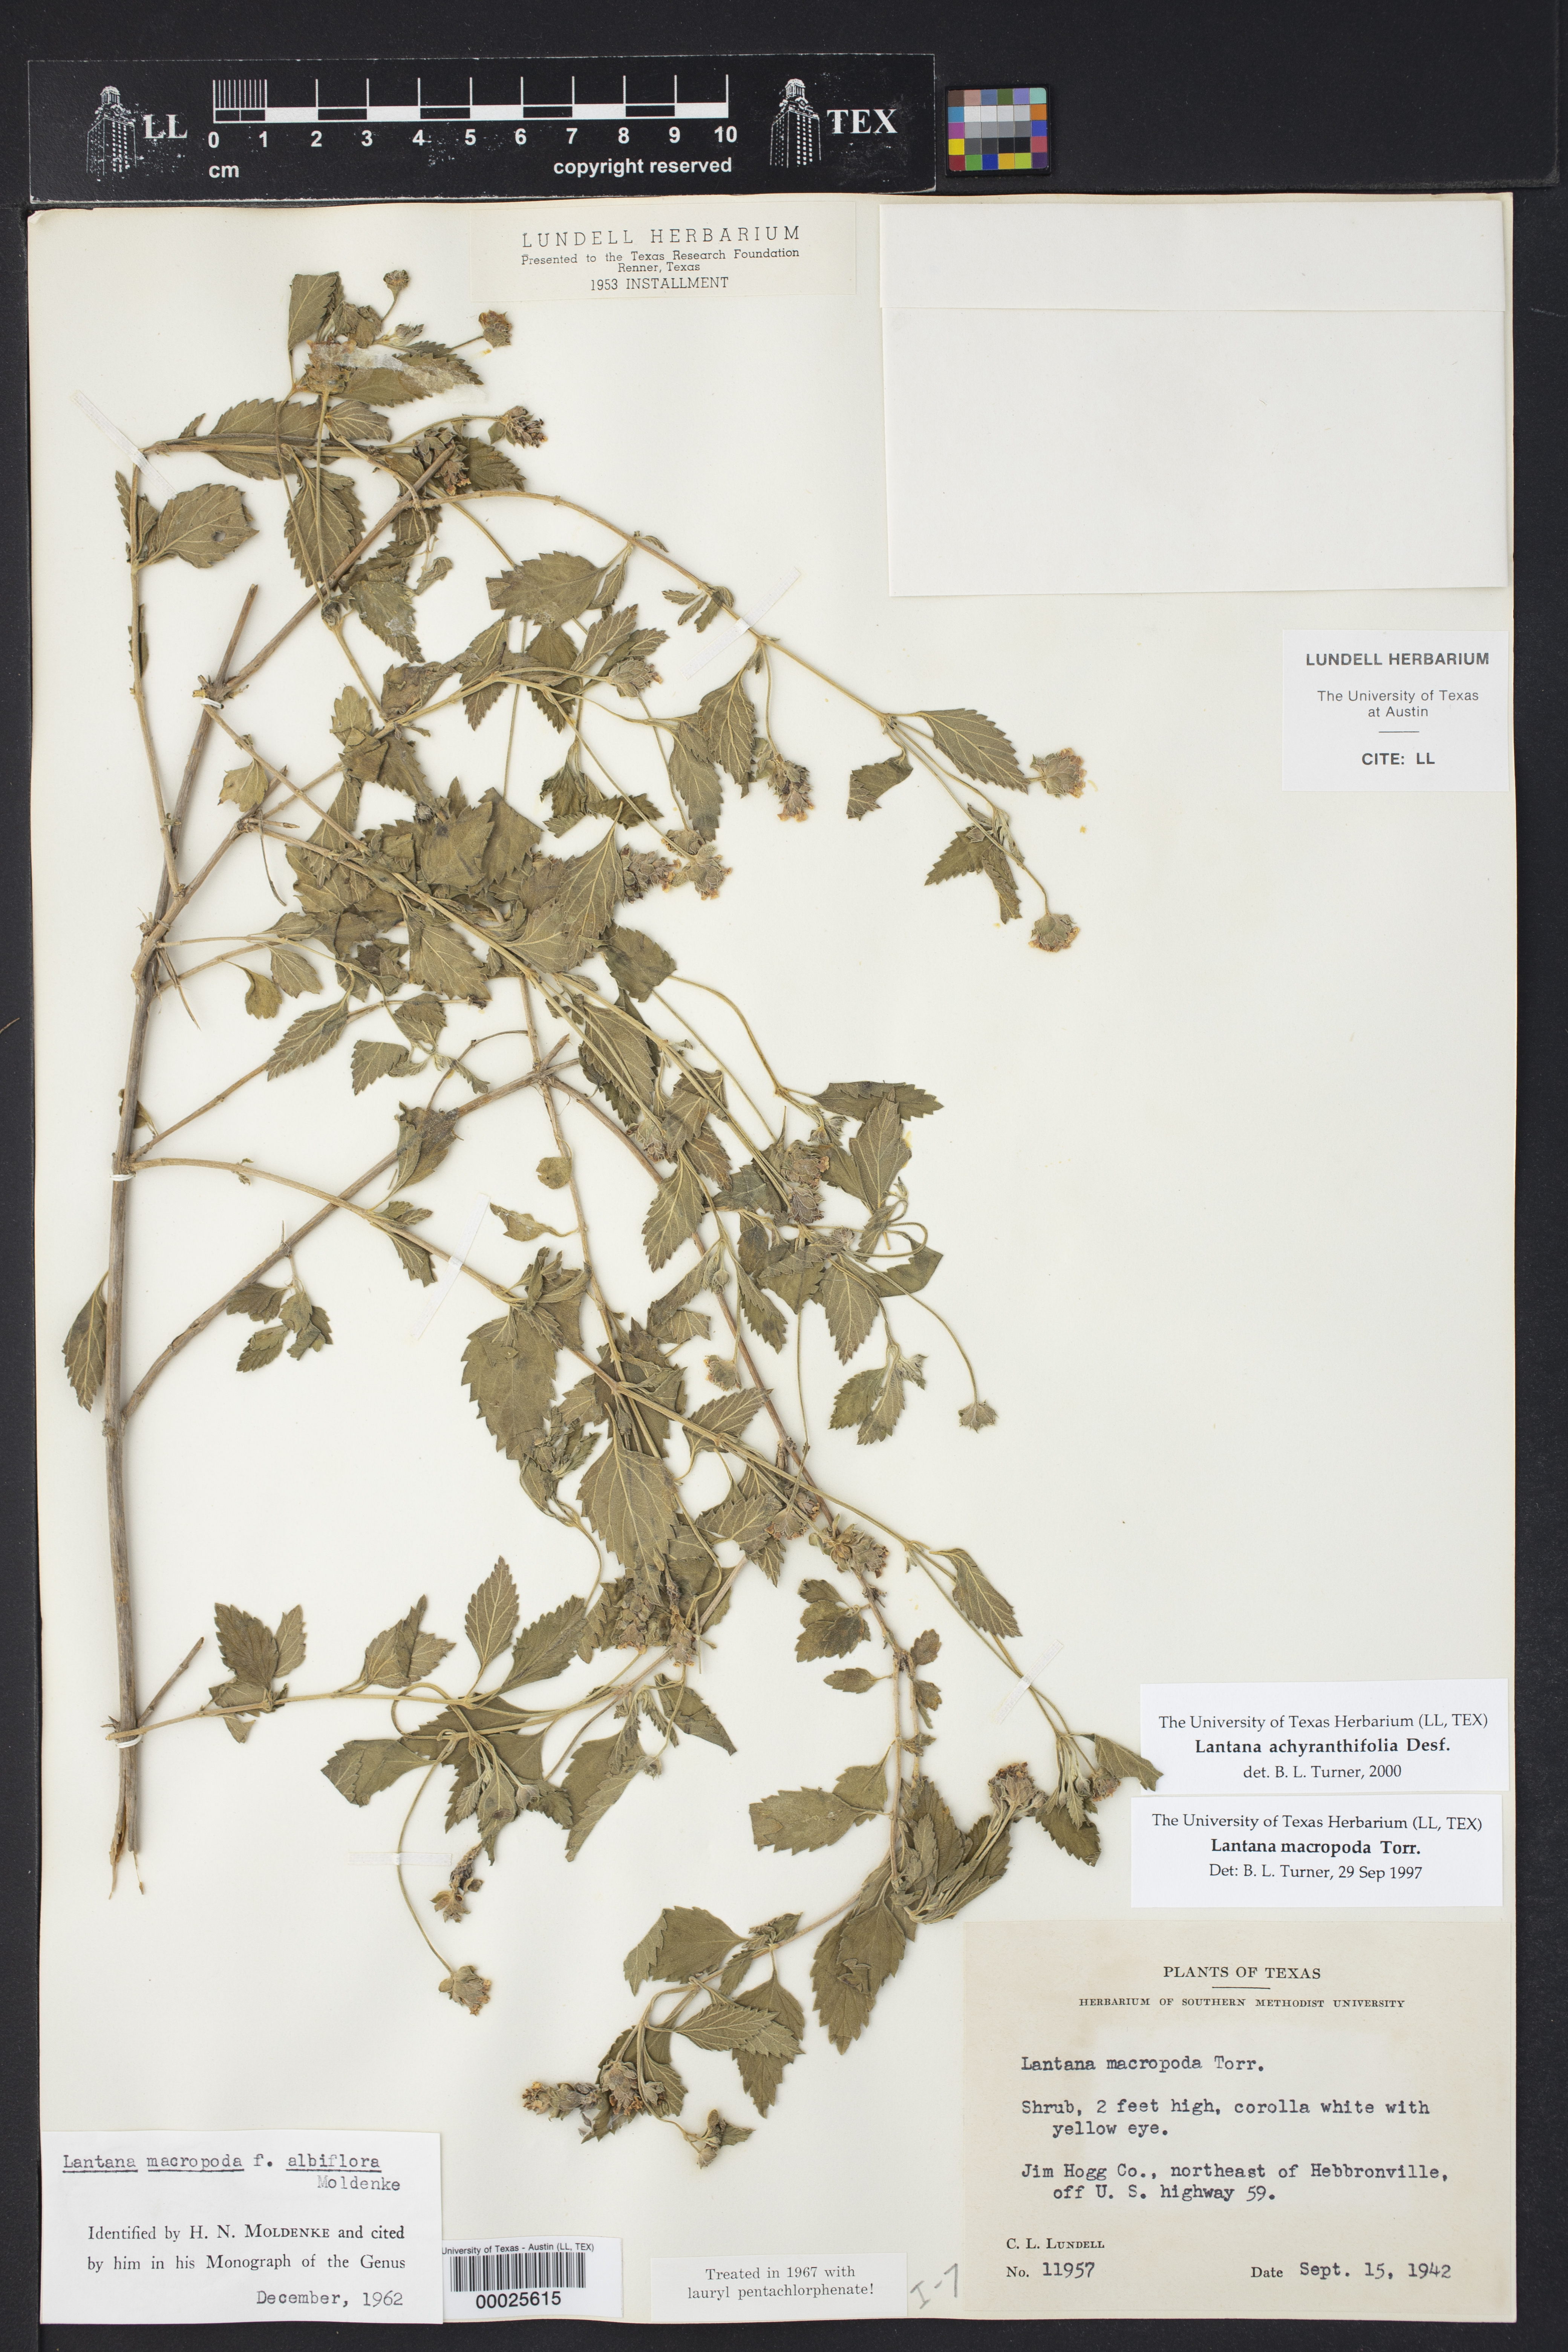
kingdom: Plantae
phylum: Tracheophyta
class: Magnoliopsida
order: Lamiales
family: Verbenaceae
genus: Lantana
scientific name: Lantana achyranthifolia
